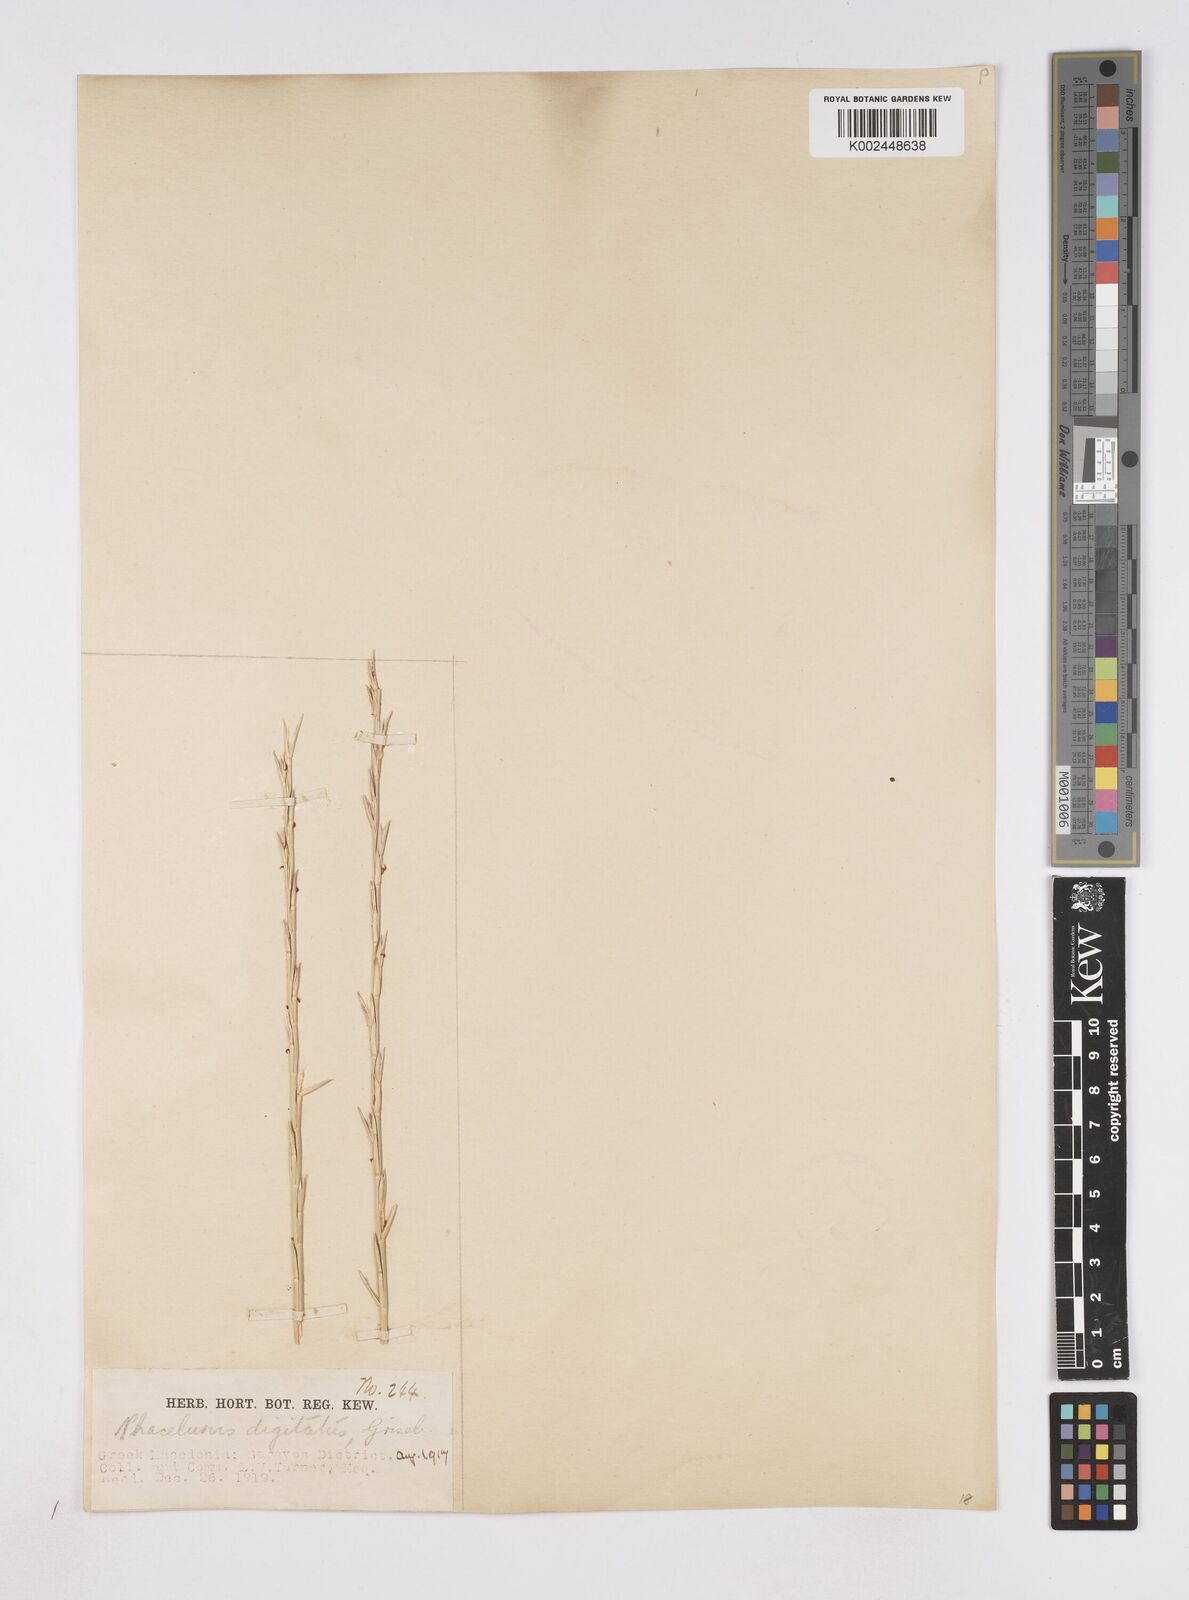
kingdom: Plantae
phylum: Tracheophyta
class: Liliopsida
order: Poales
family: Poaceae
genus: Phacelurus
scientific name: Phacelurus digitatus
